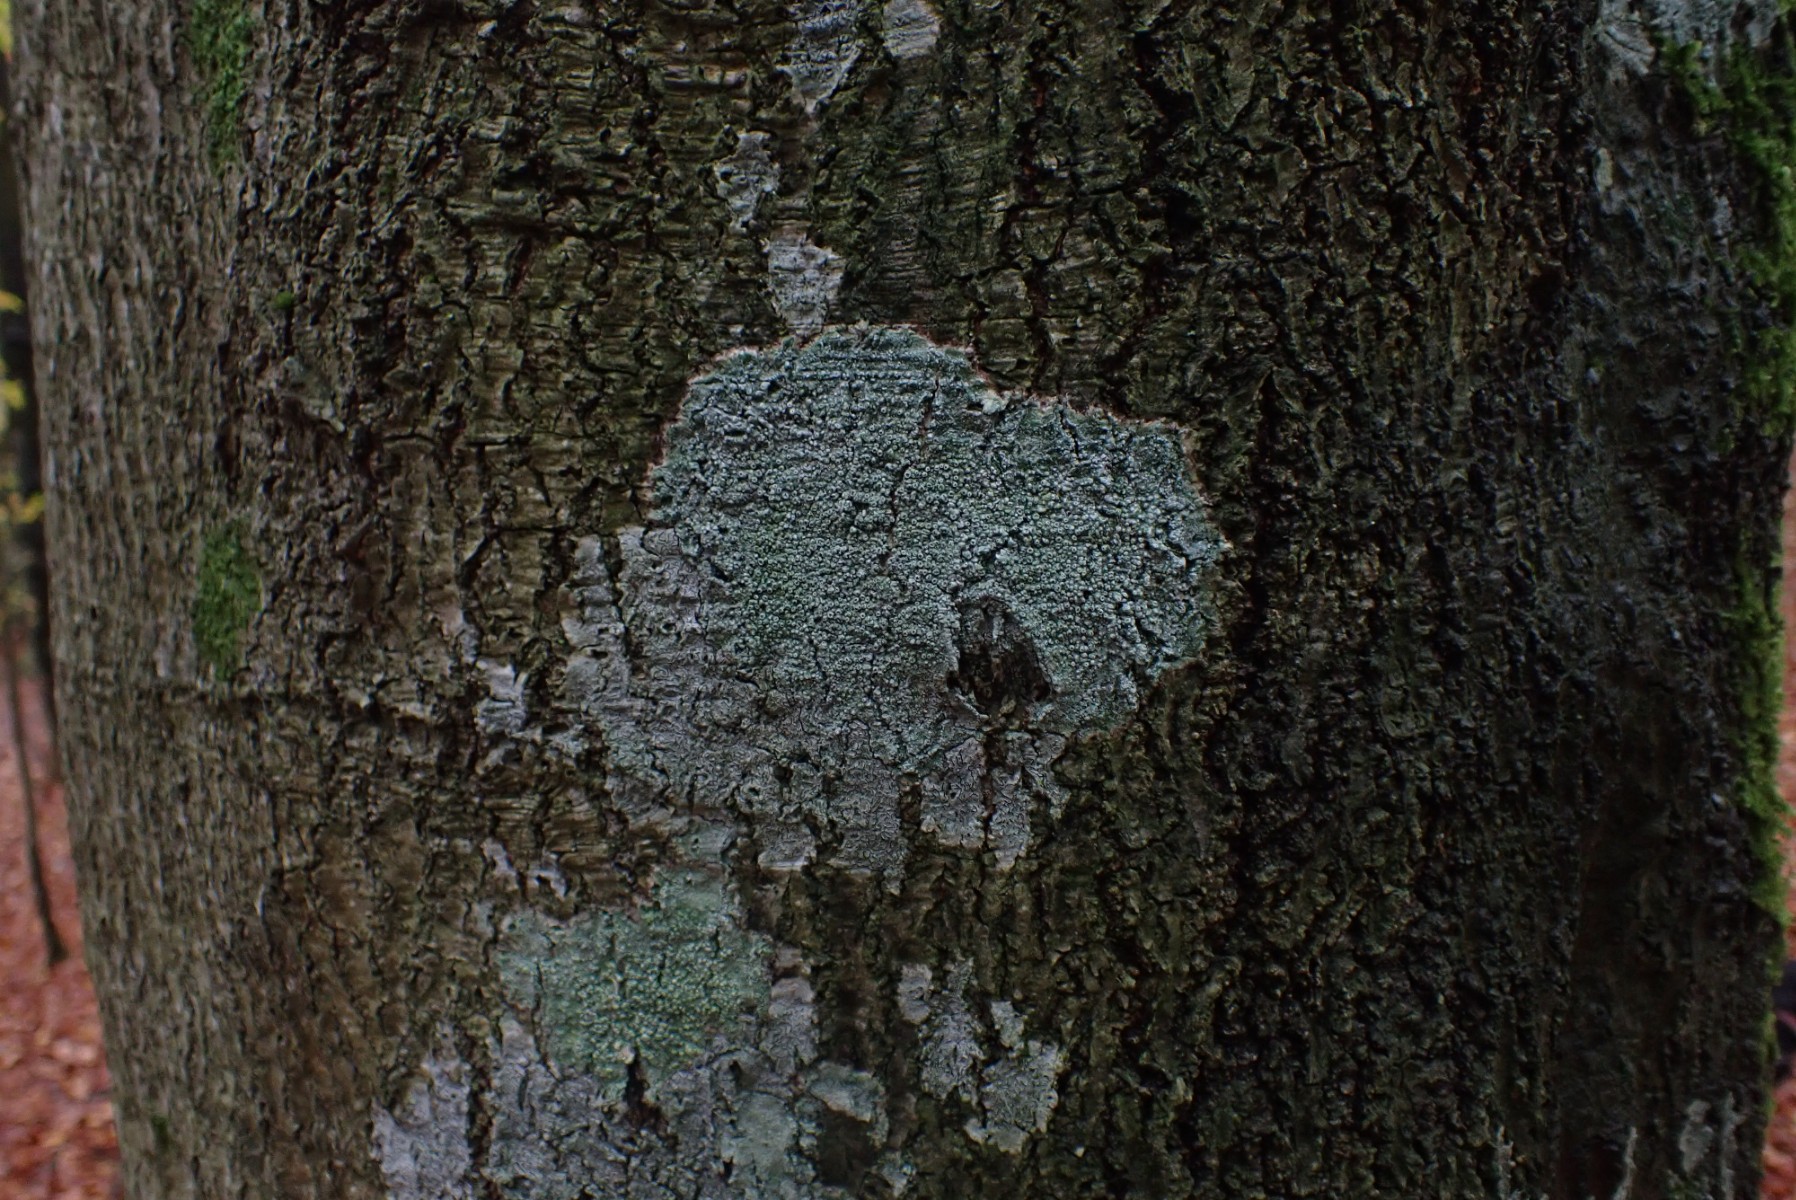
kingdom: Fungi
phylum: Ascomycota
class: Lecanoromycetes
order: Pertusariales
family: Pertusariaceae
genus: Pertusaria
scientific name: Pertusaria hymenea
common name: åben prikvortelav
